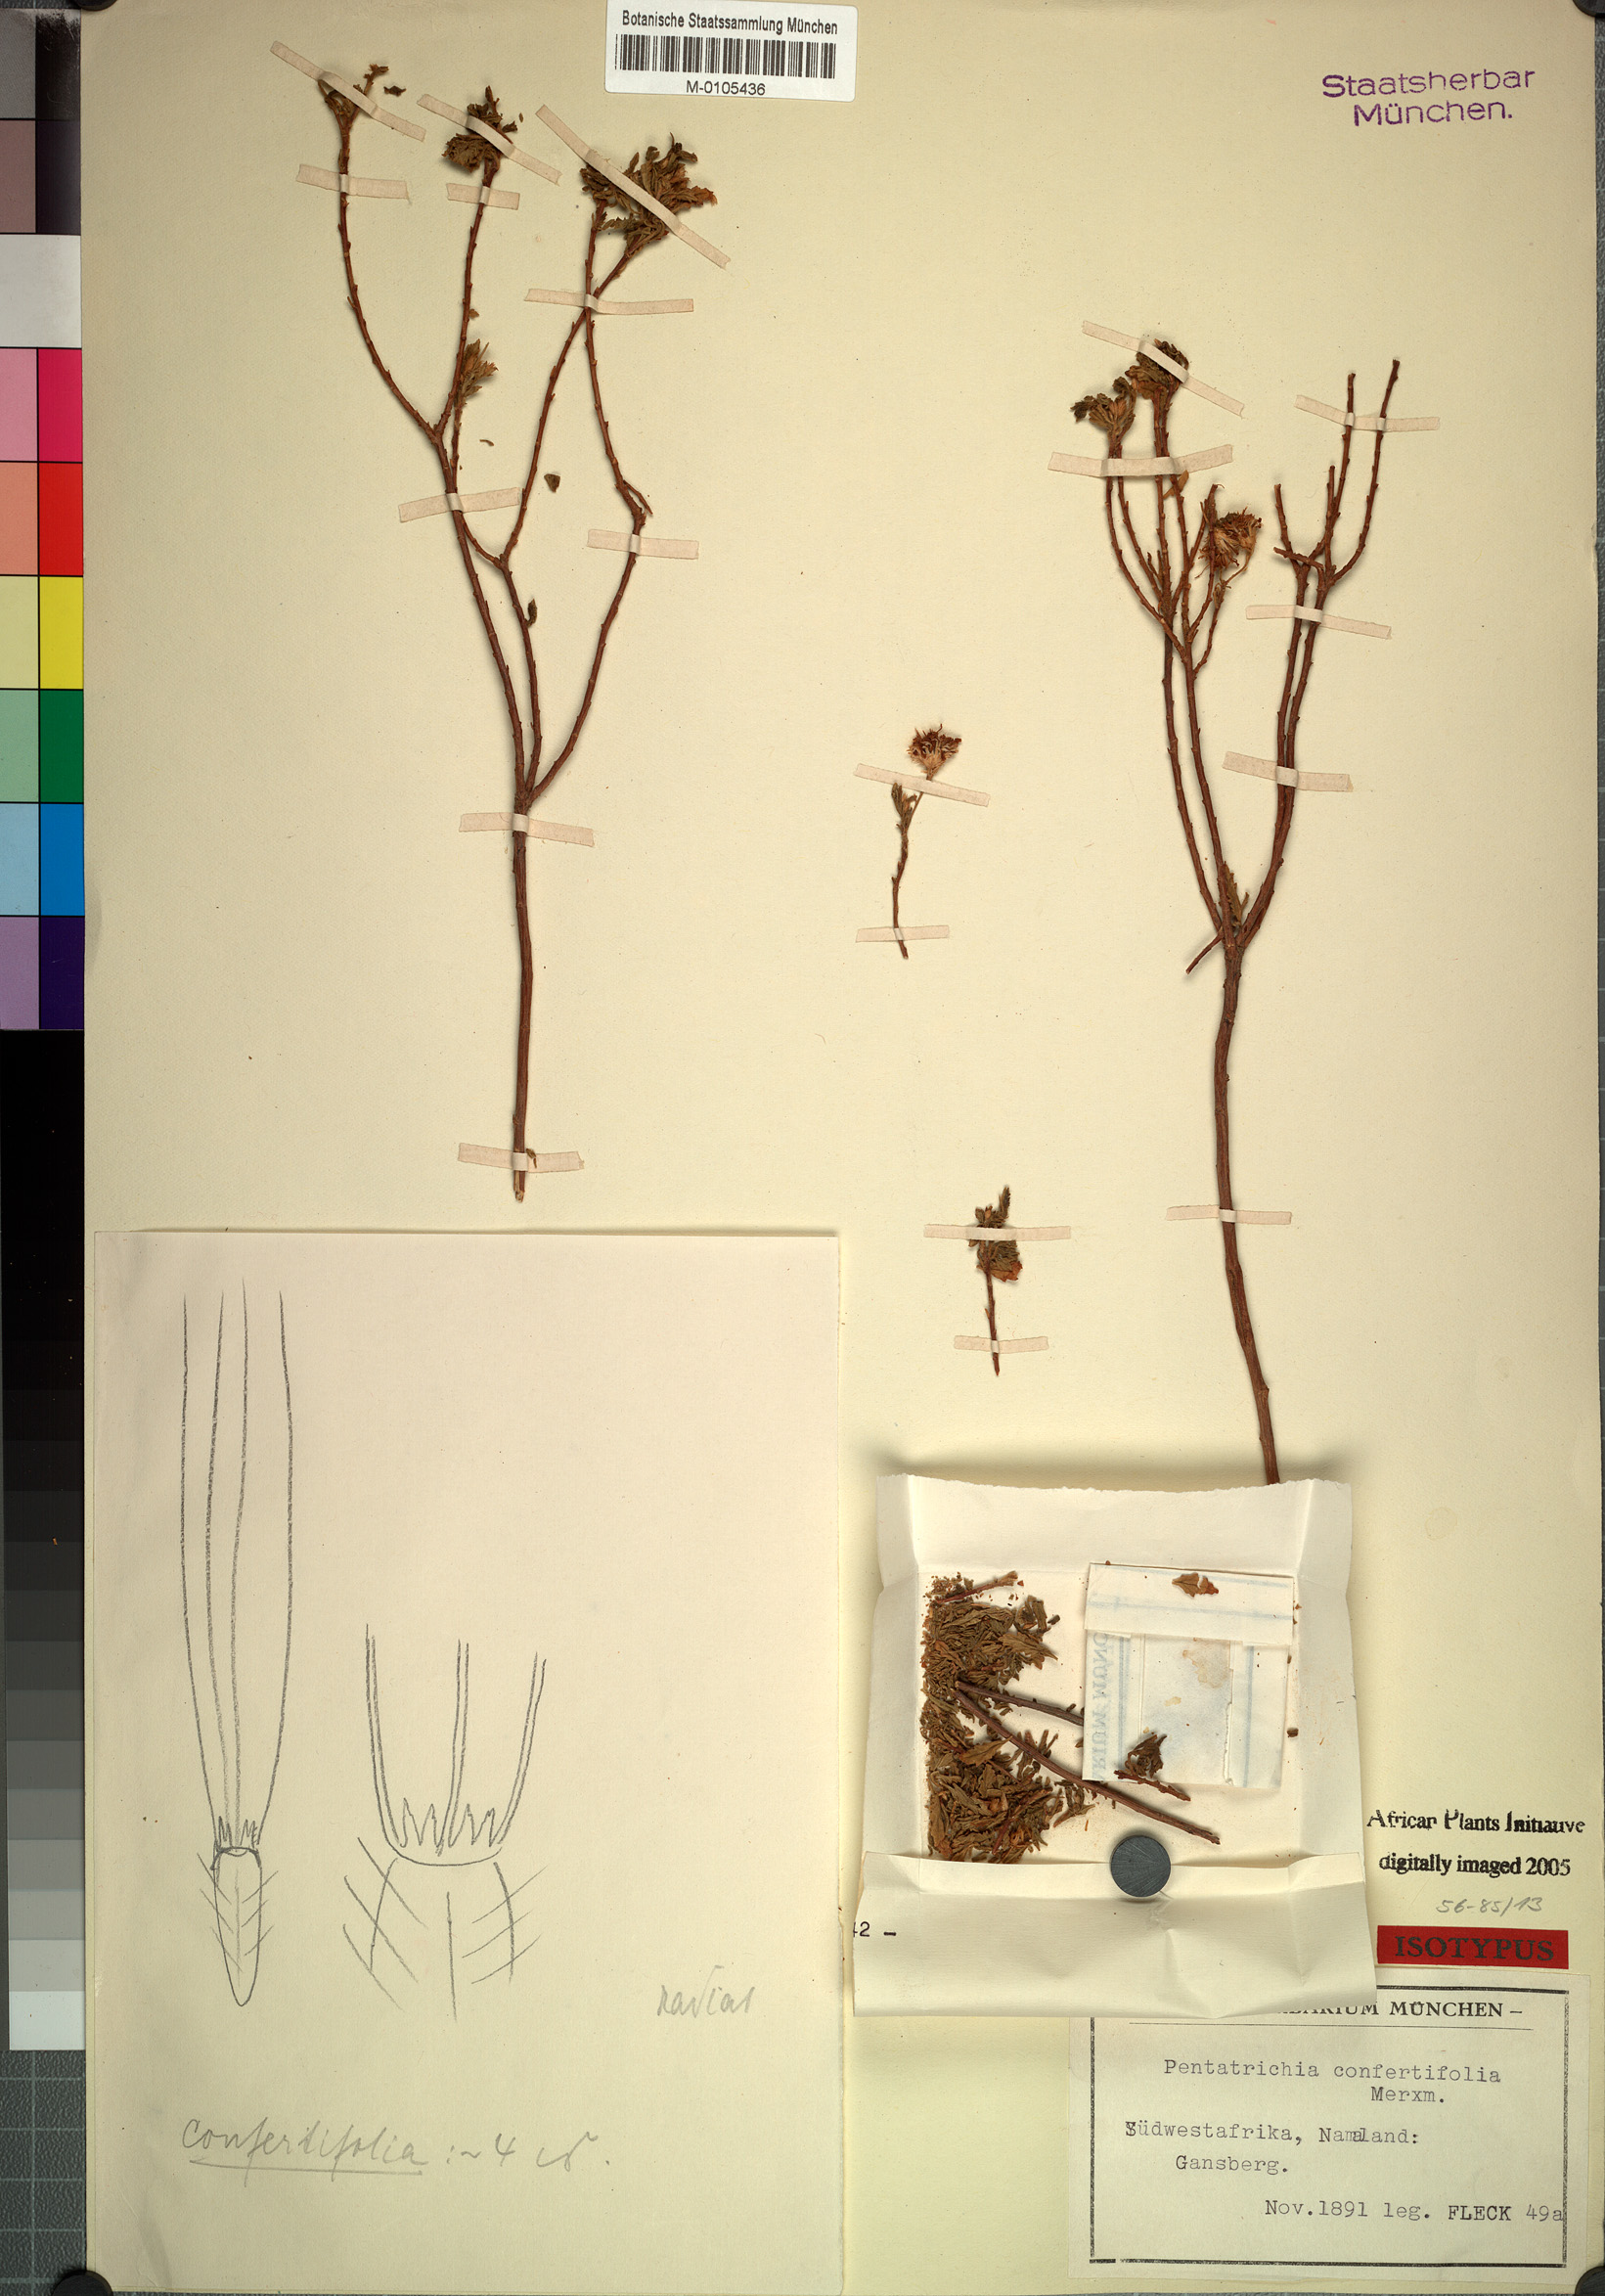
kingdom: Plantae
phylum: Tracheophyta
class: Magnoliopsida
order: Asterales
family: Asteraceae
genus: Pentatrichia
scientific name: Pentatrichia rehmii
